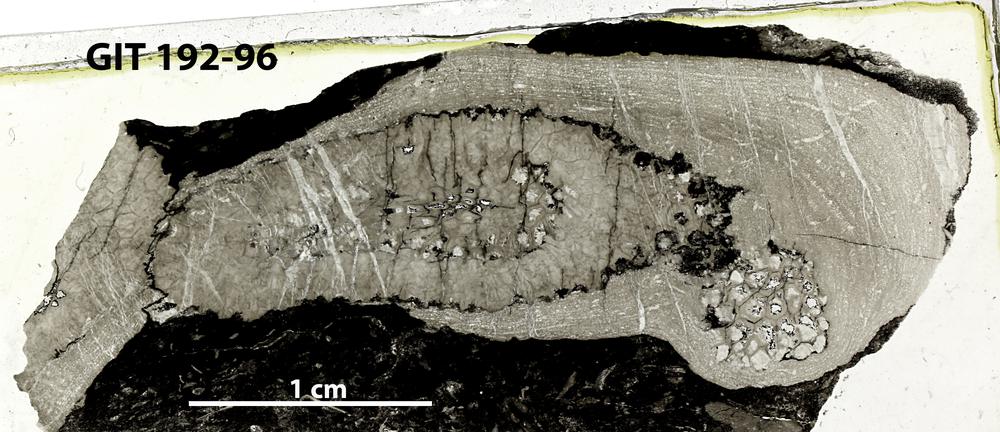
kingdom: Animalia
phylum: Porifera
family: Densastromatidae
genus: Araneosustroma
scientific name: Araneosustroma
